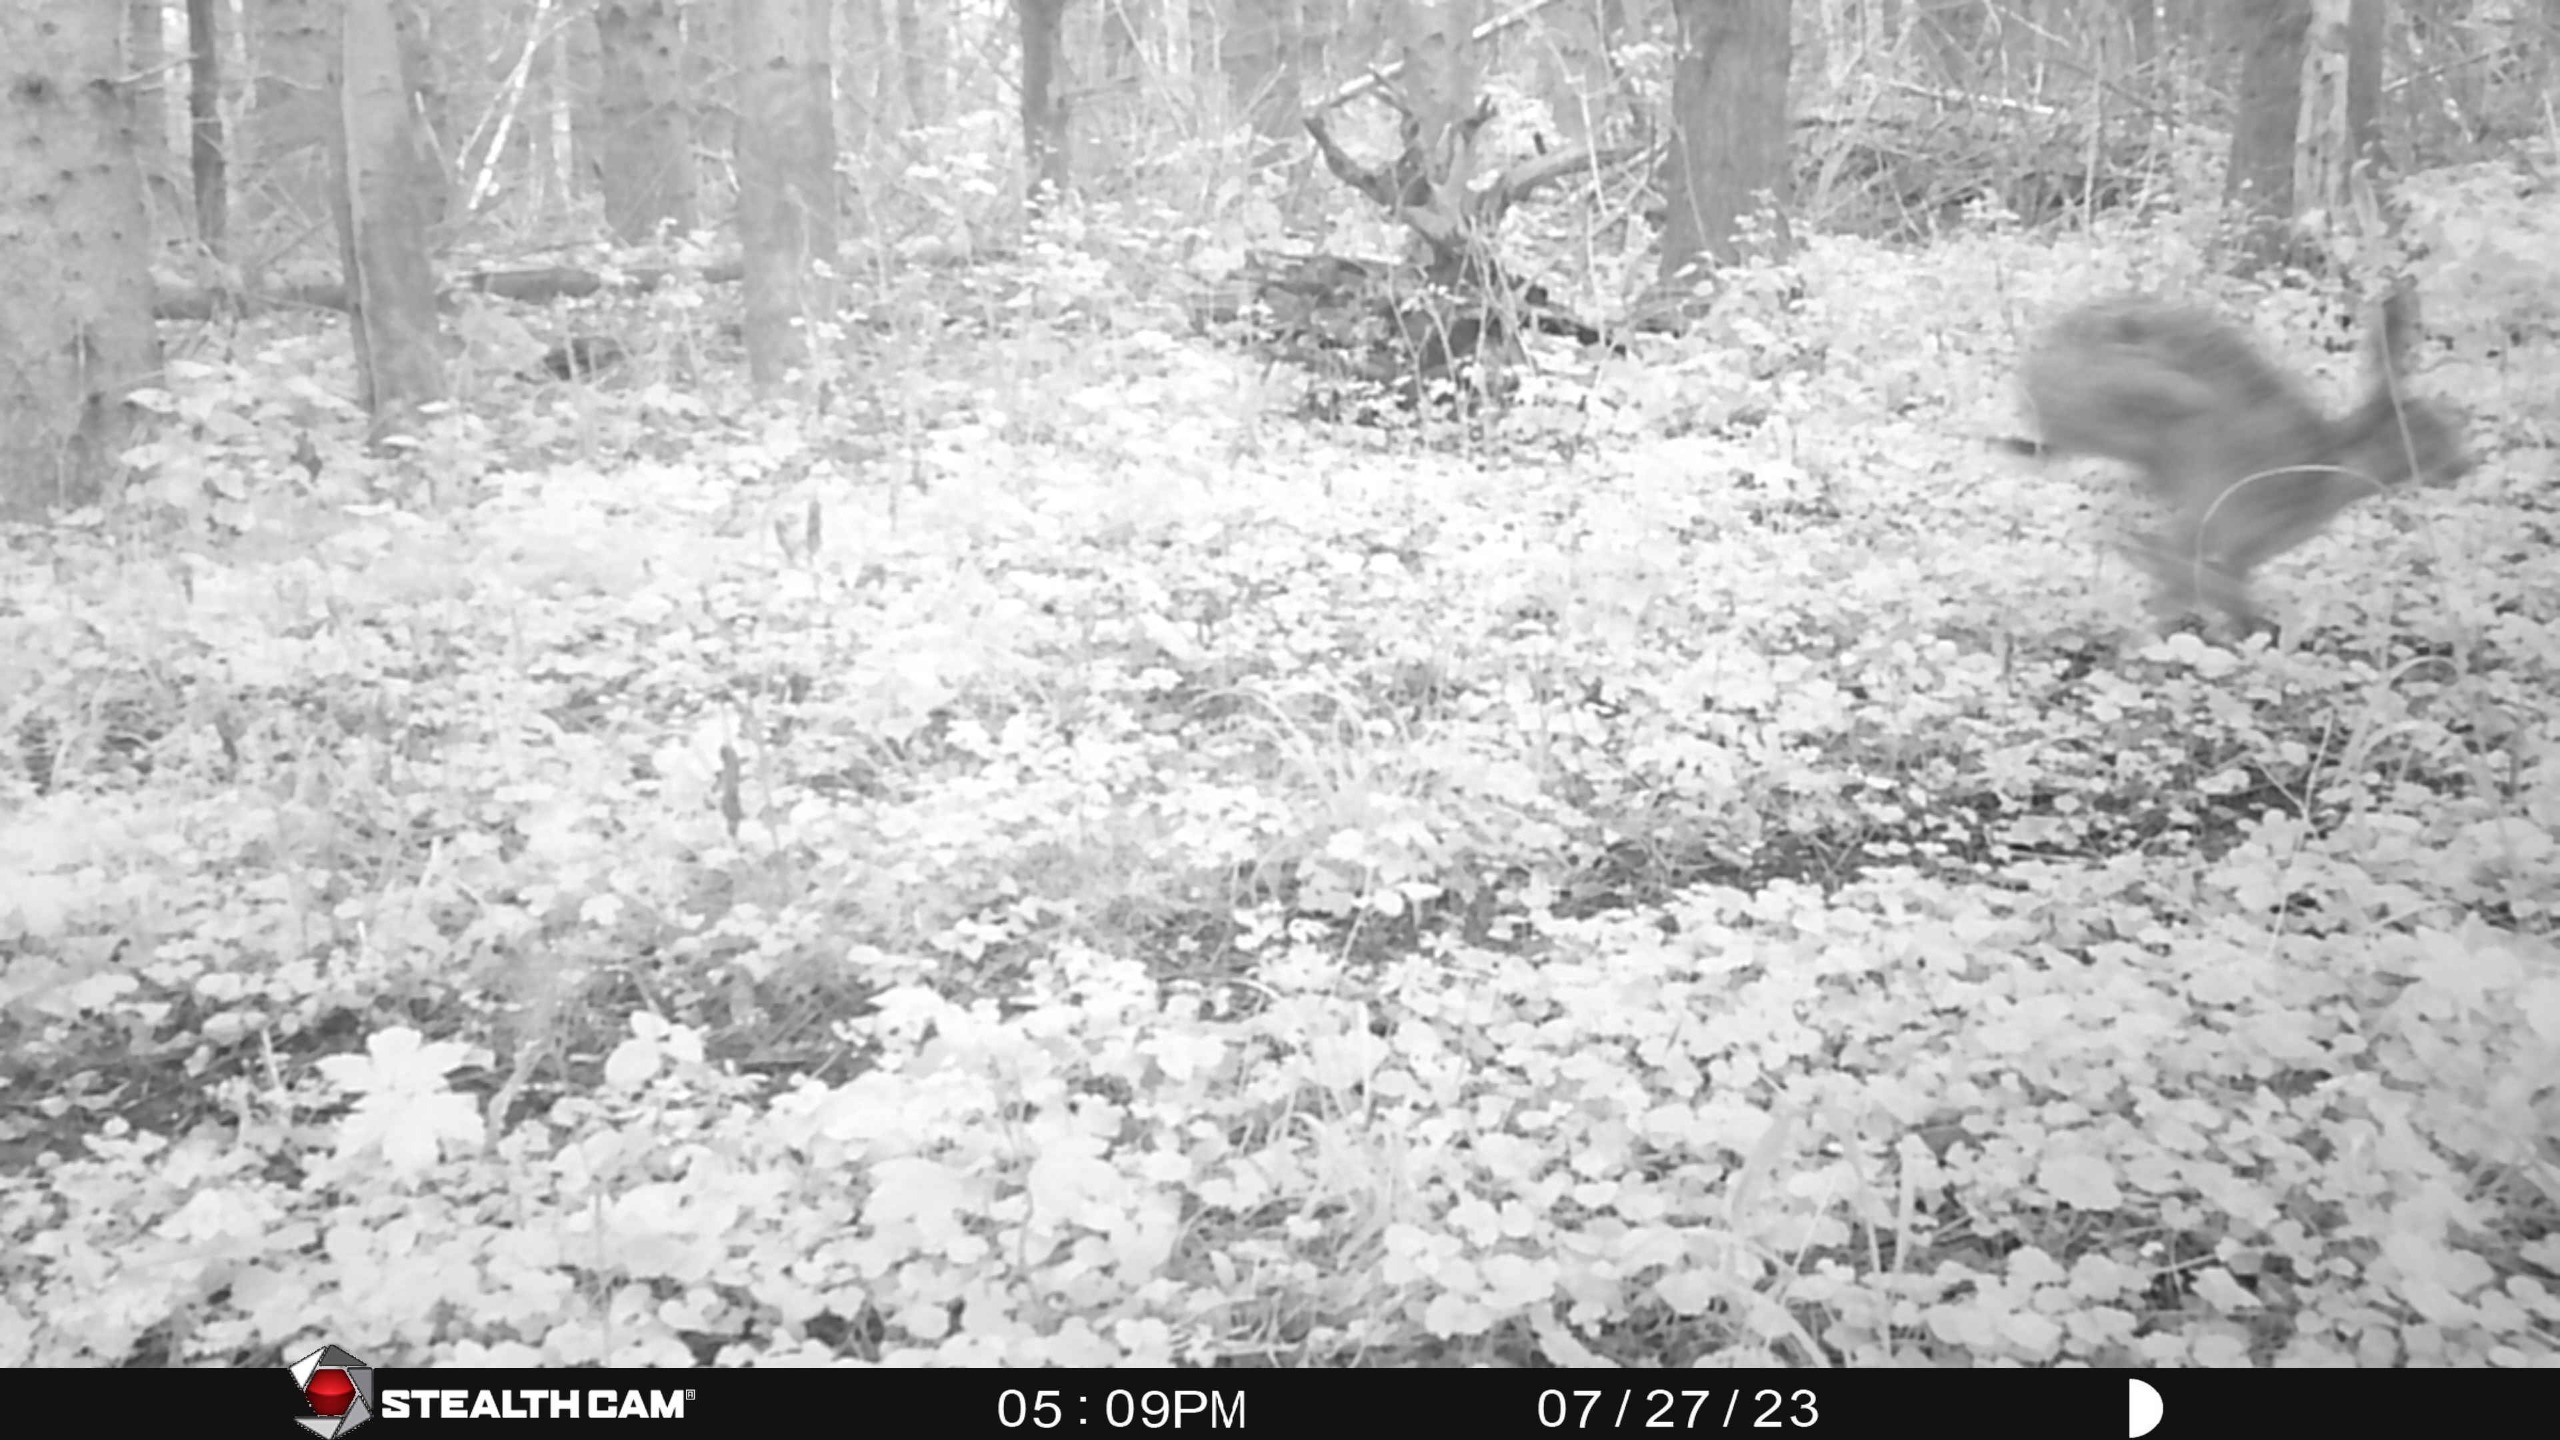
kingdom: Animalia
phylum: Chordata
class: Mammalia
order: Lagomorpha
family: Leporidae
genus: Lepus
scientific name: Lepus europaeus
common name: Hare
